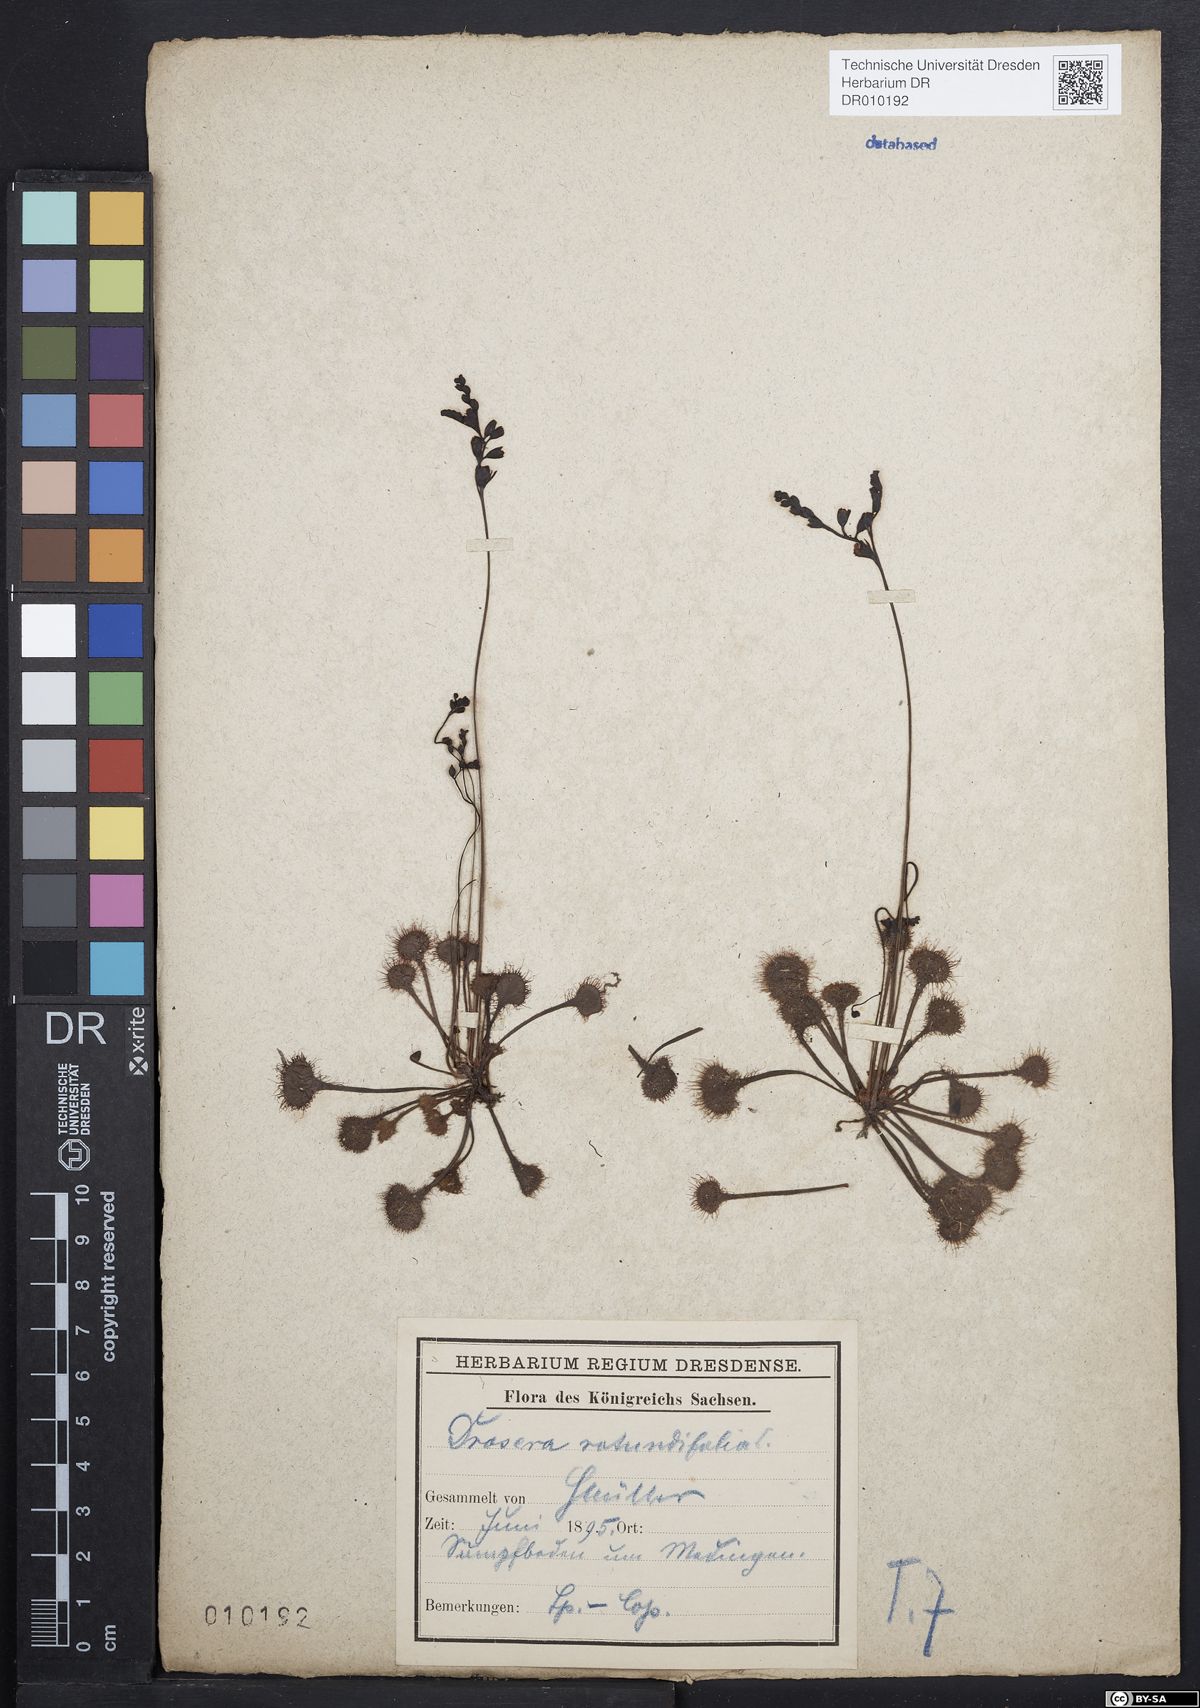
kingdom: Plantae
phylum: Tracheophyta
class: Magnoliopsida
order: Caryophyllales
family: Droseraceae
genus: Drosera
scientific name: Drosera rotundifolia
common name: Round-leaved sundew
